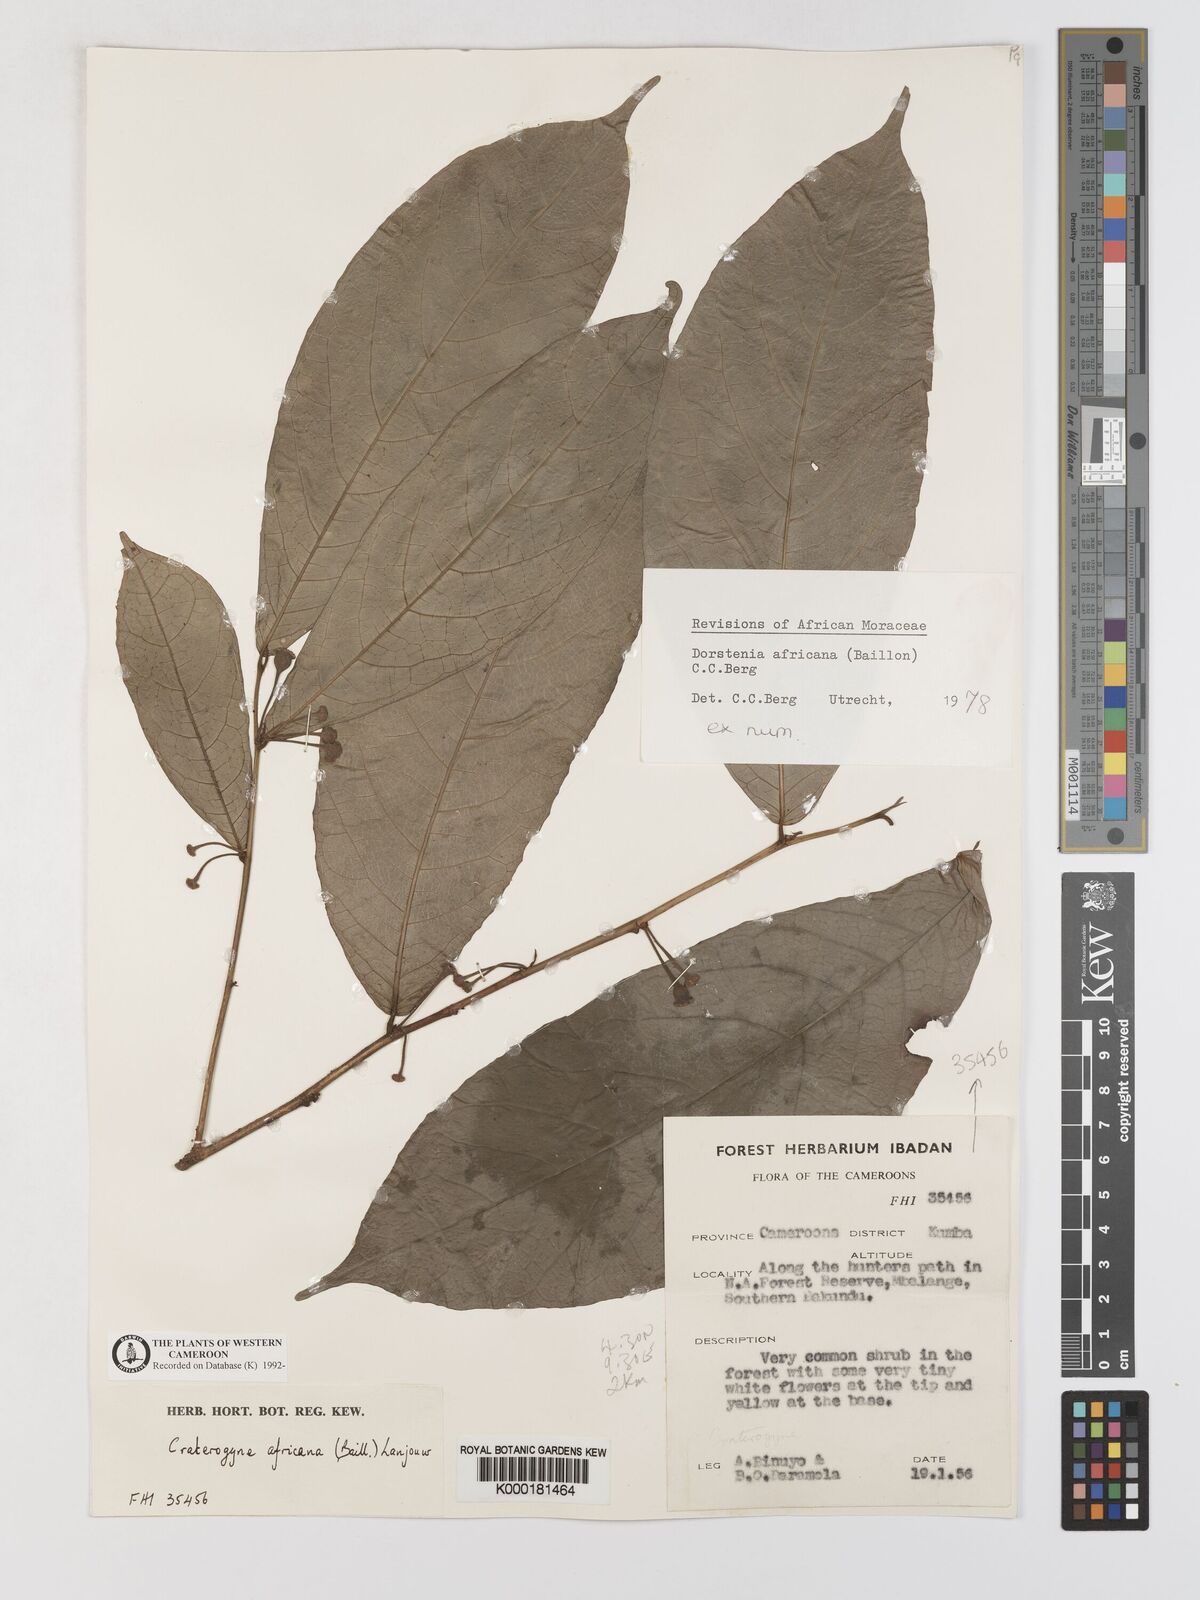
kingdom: Plantae
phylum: Tracheophyta
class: Magnoliopsida
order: Rosales
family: Moraceae
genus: Dorstenia
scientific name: Dorstenia africana
